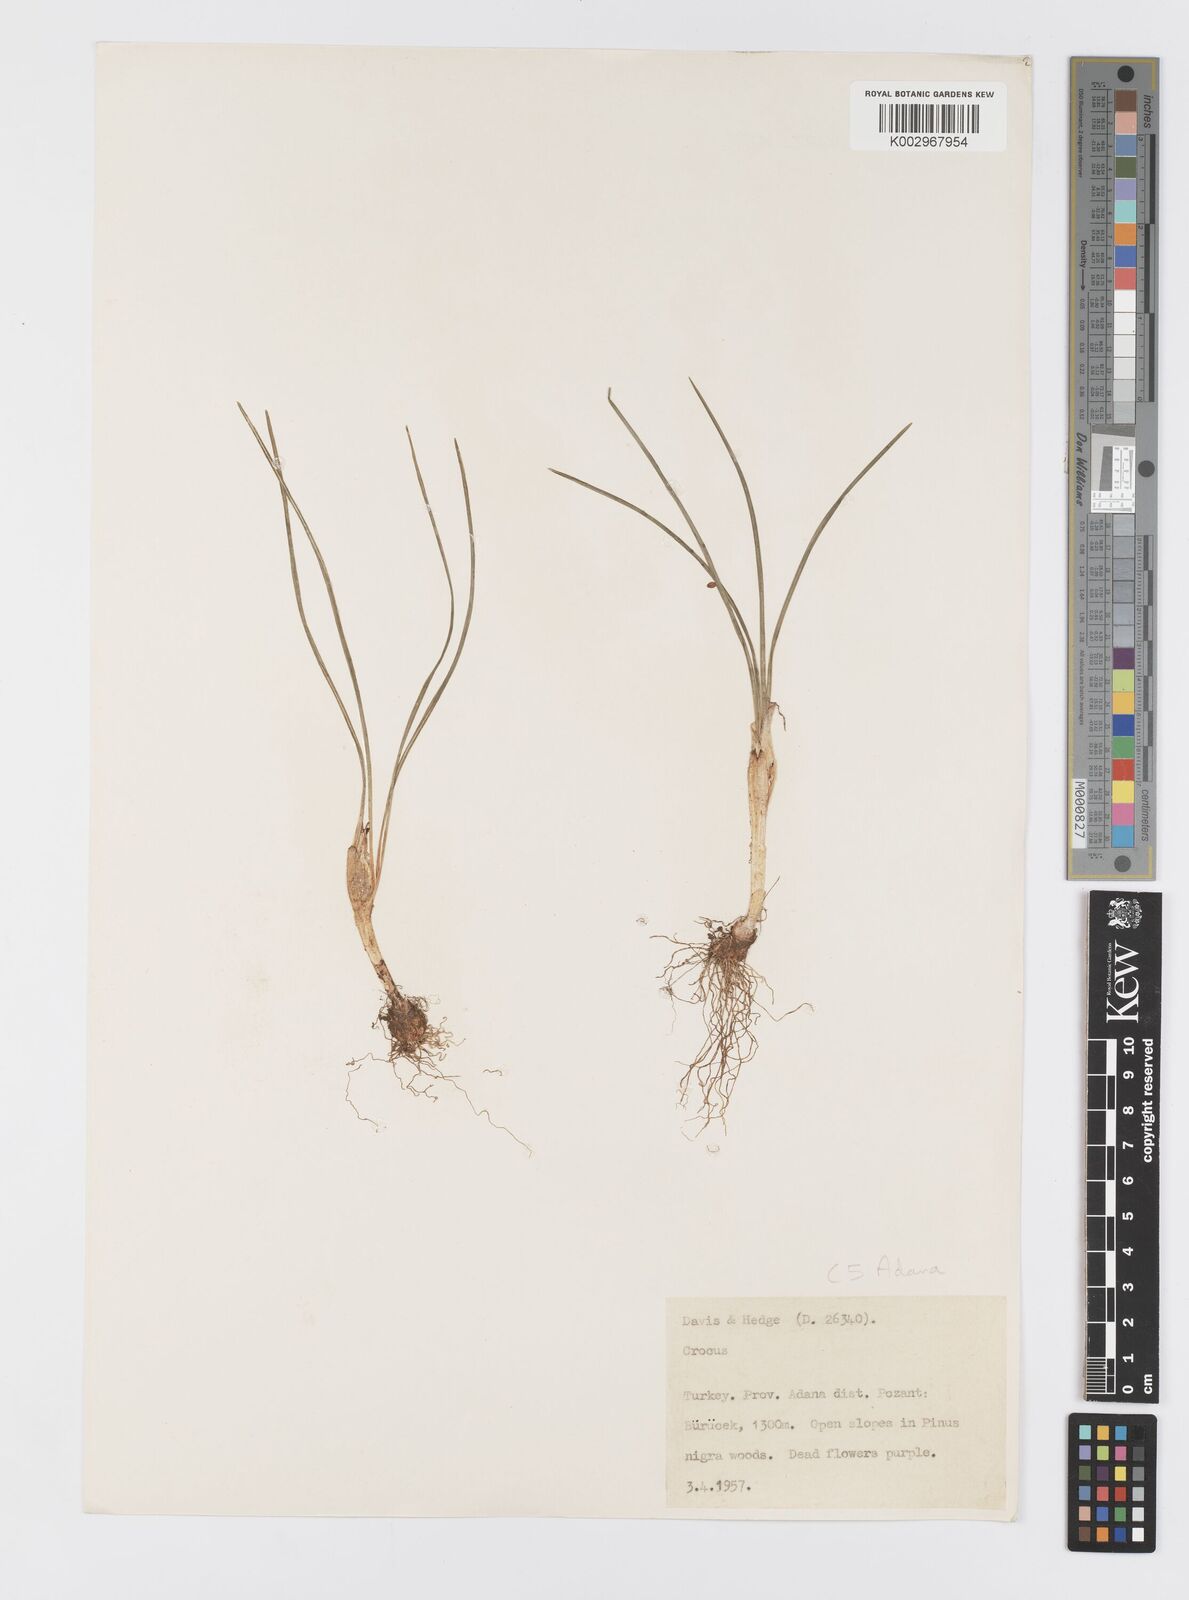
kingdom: Plantae
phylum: Tracheophyta
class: Liliopsida
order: Asparagales
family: Iridaceae
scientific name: Iridaceae
